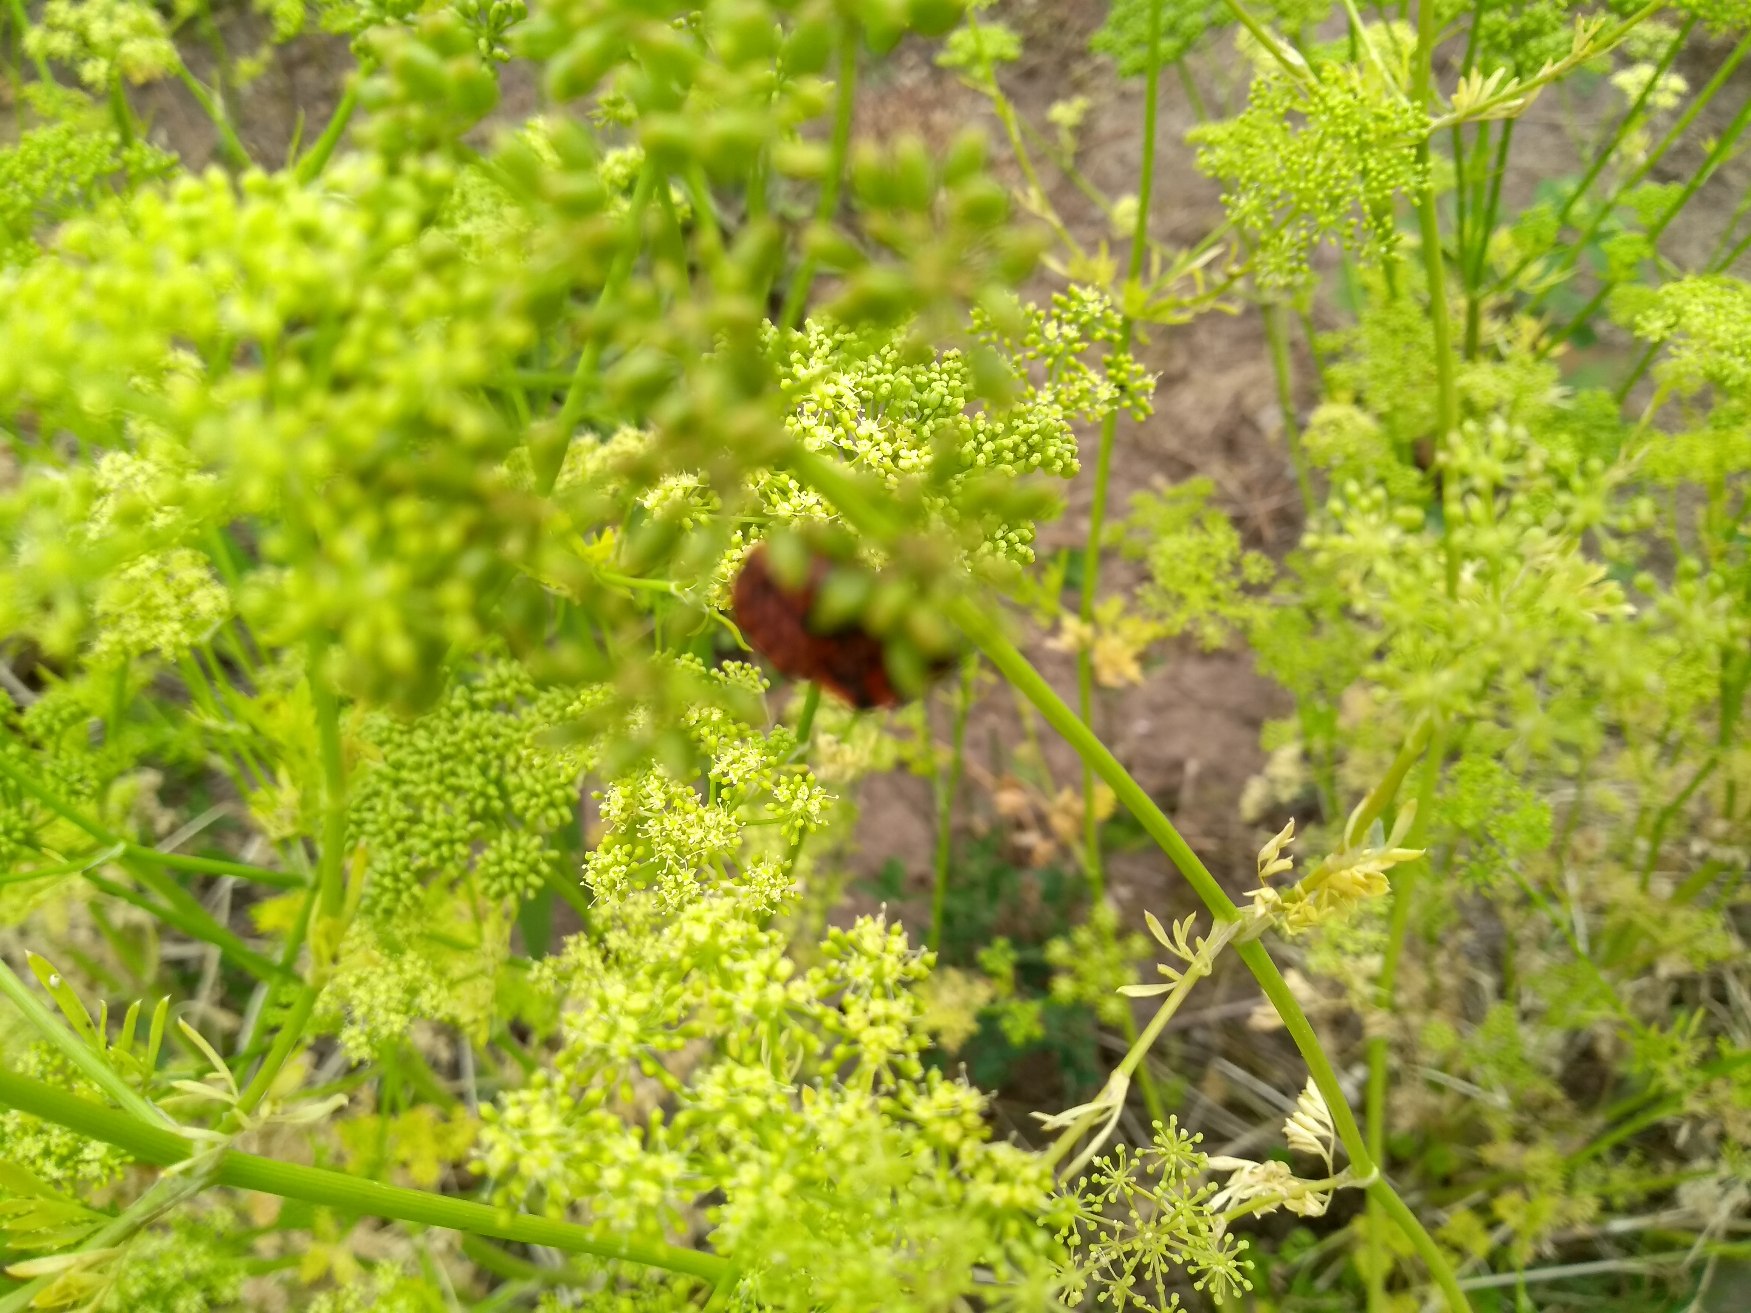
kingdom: Animalia
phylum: Arthropoda
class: Insecta
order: Hemiptera
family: Pentatomidae
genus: Graphosoma
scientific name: Graphosoma italicum
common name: Stribetæge
